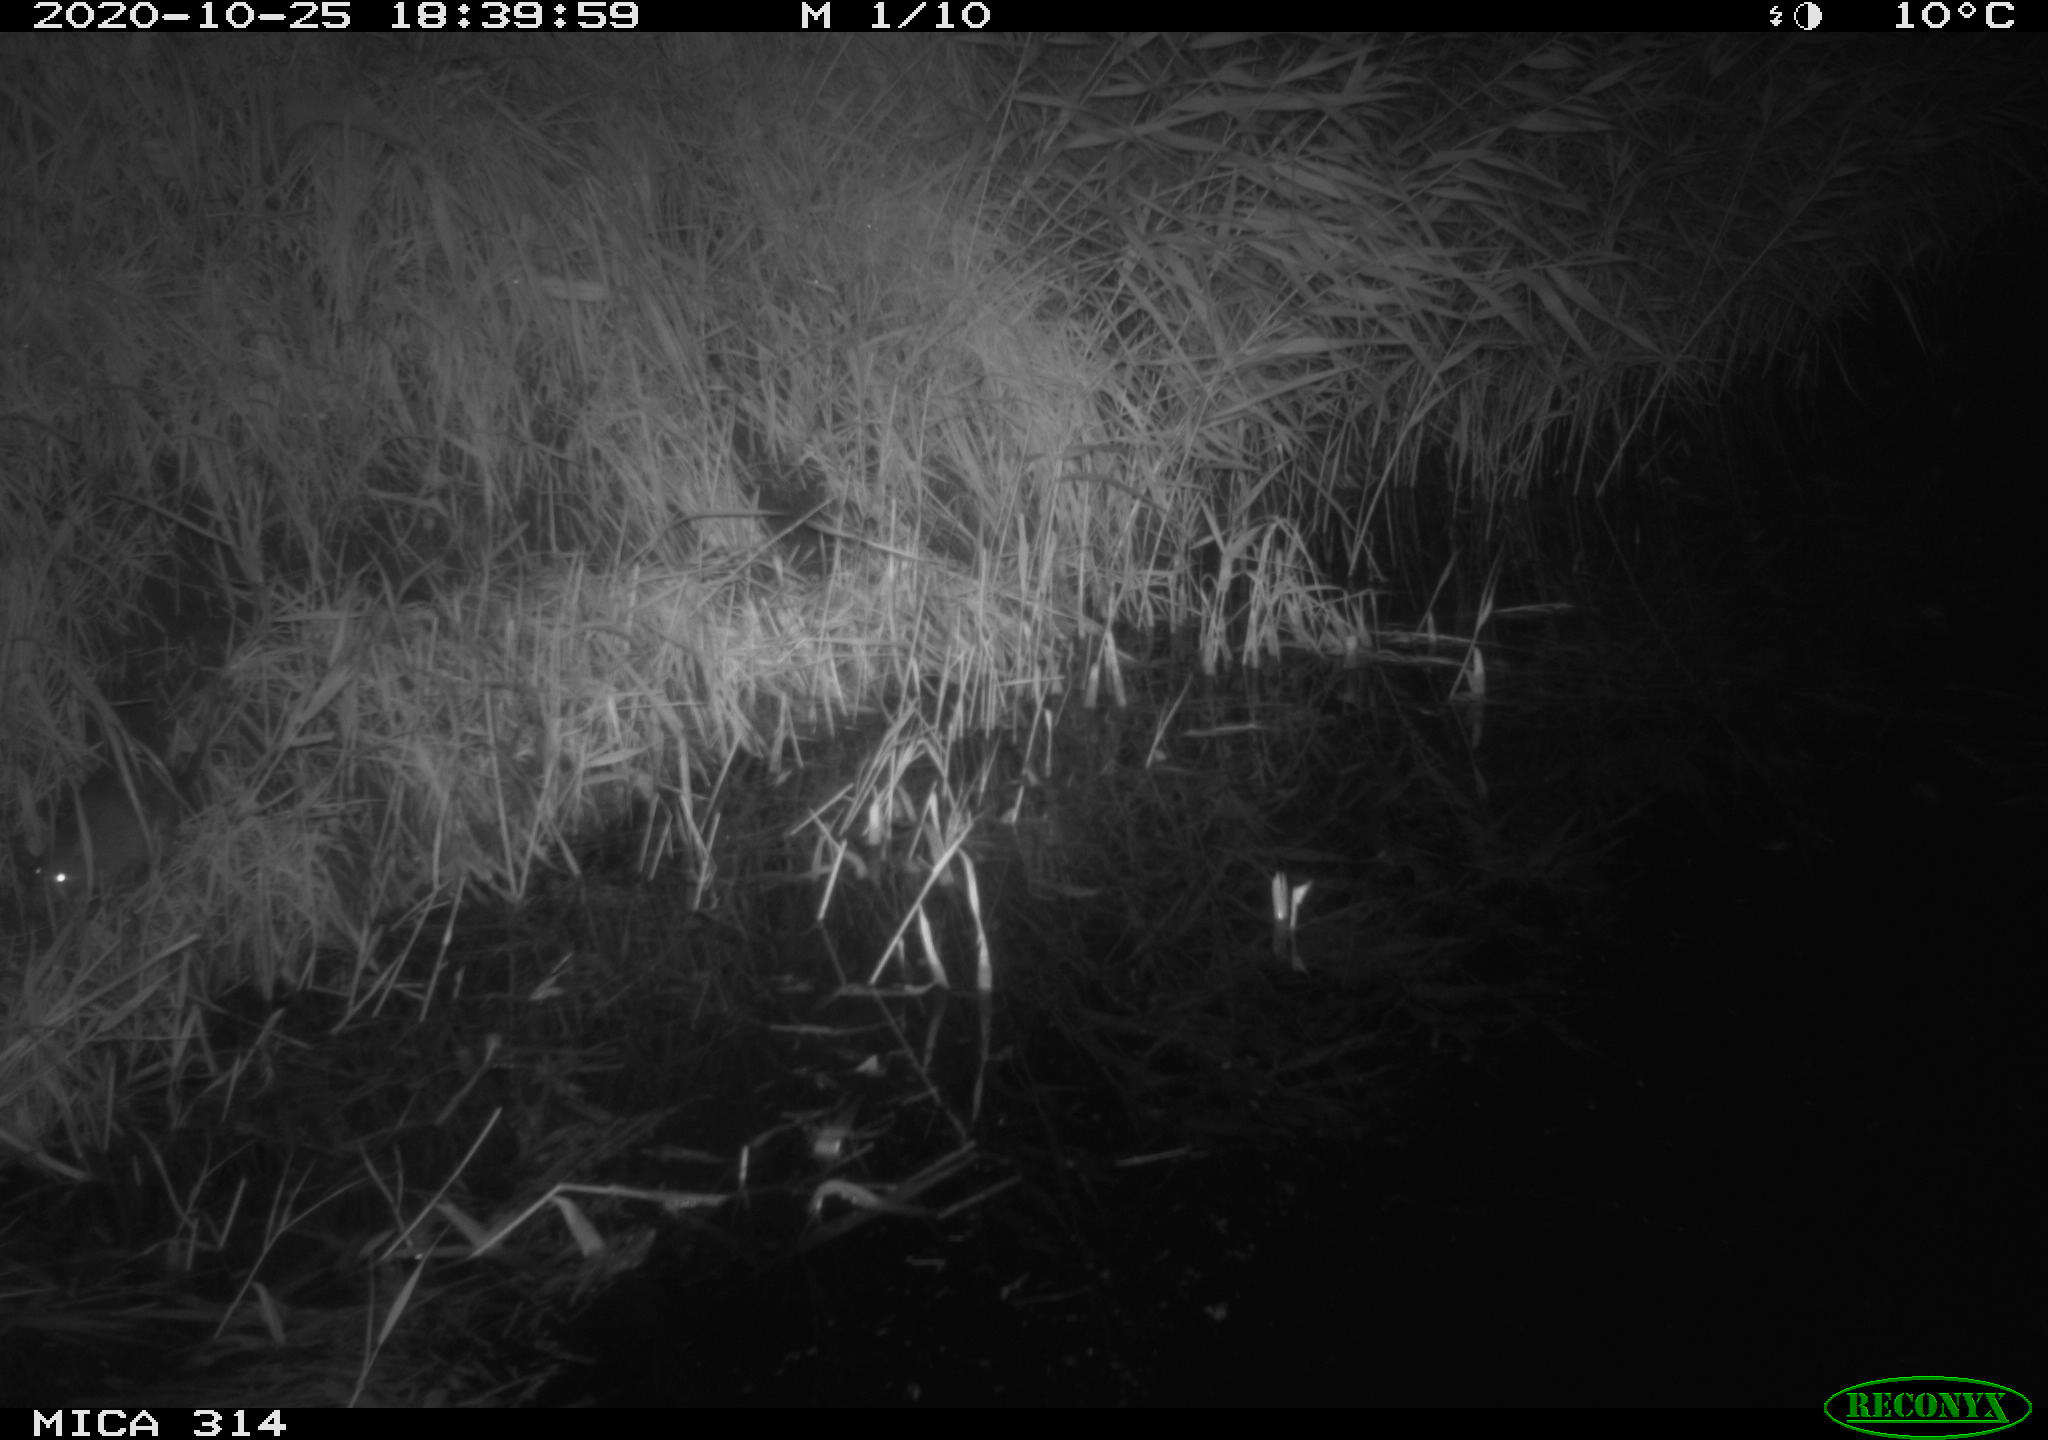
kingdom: Animalia
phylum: Chordata
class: Mammalia
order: Rodentia
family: Muridae
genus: Rattus
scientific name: Rattus norvegicus
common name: Brown rat
